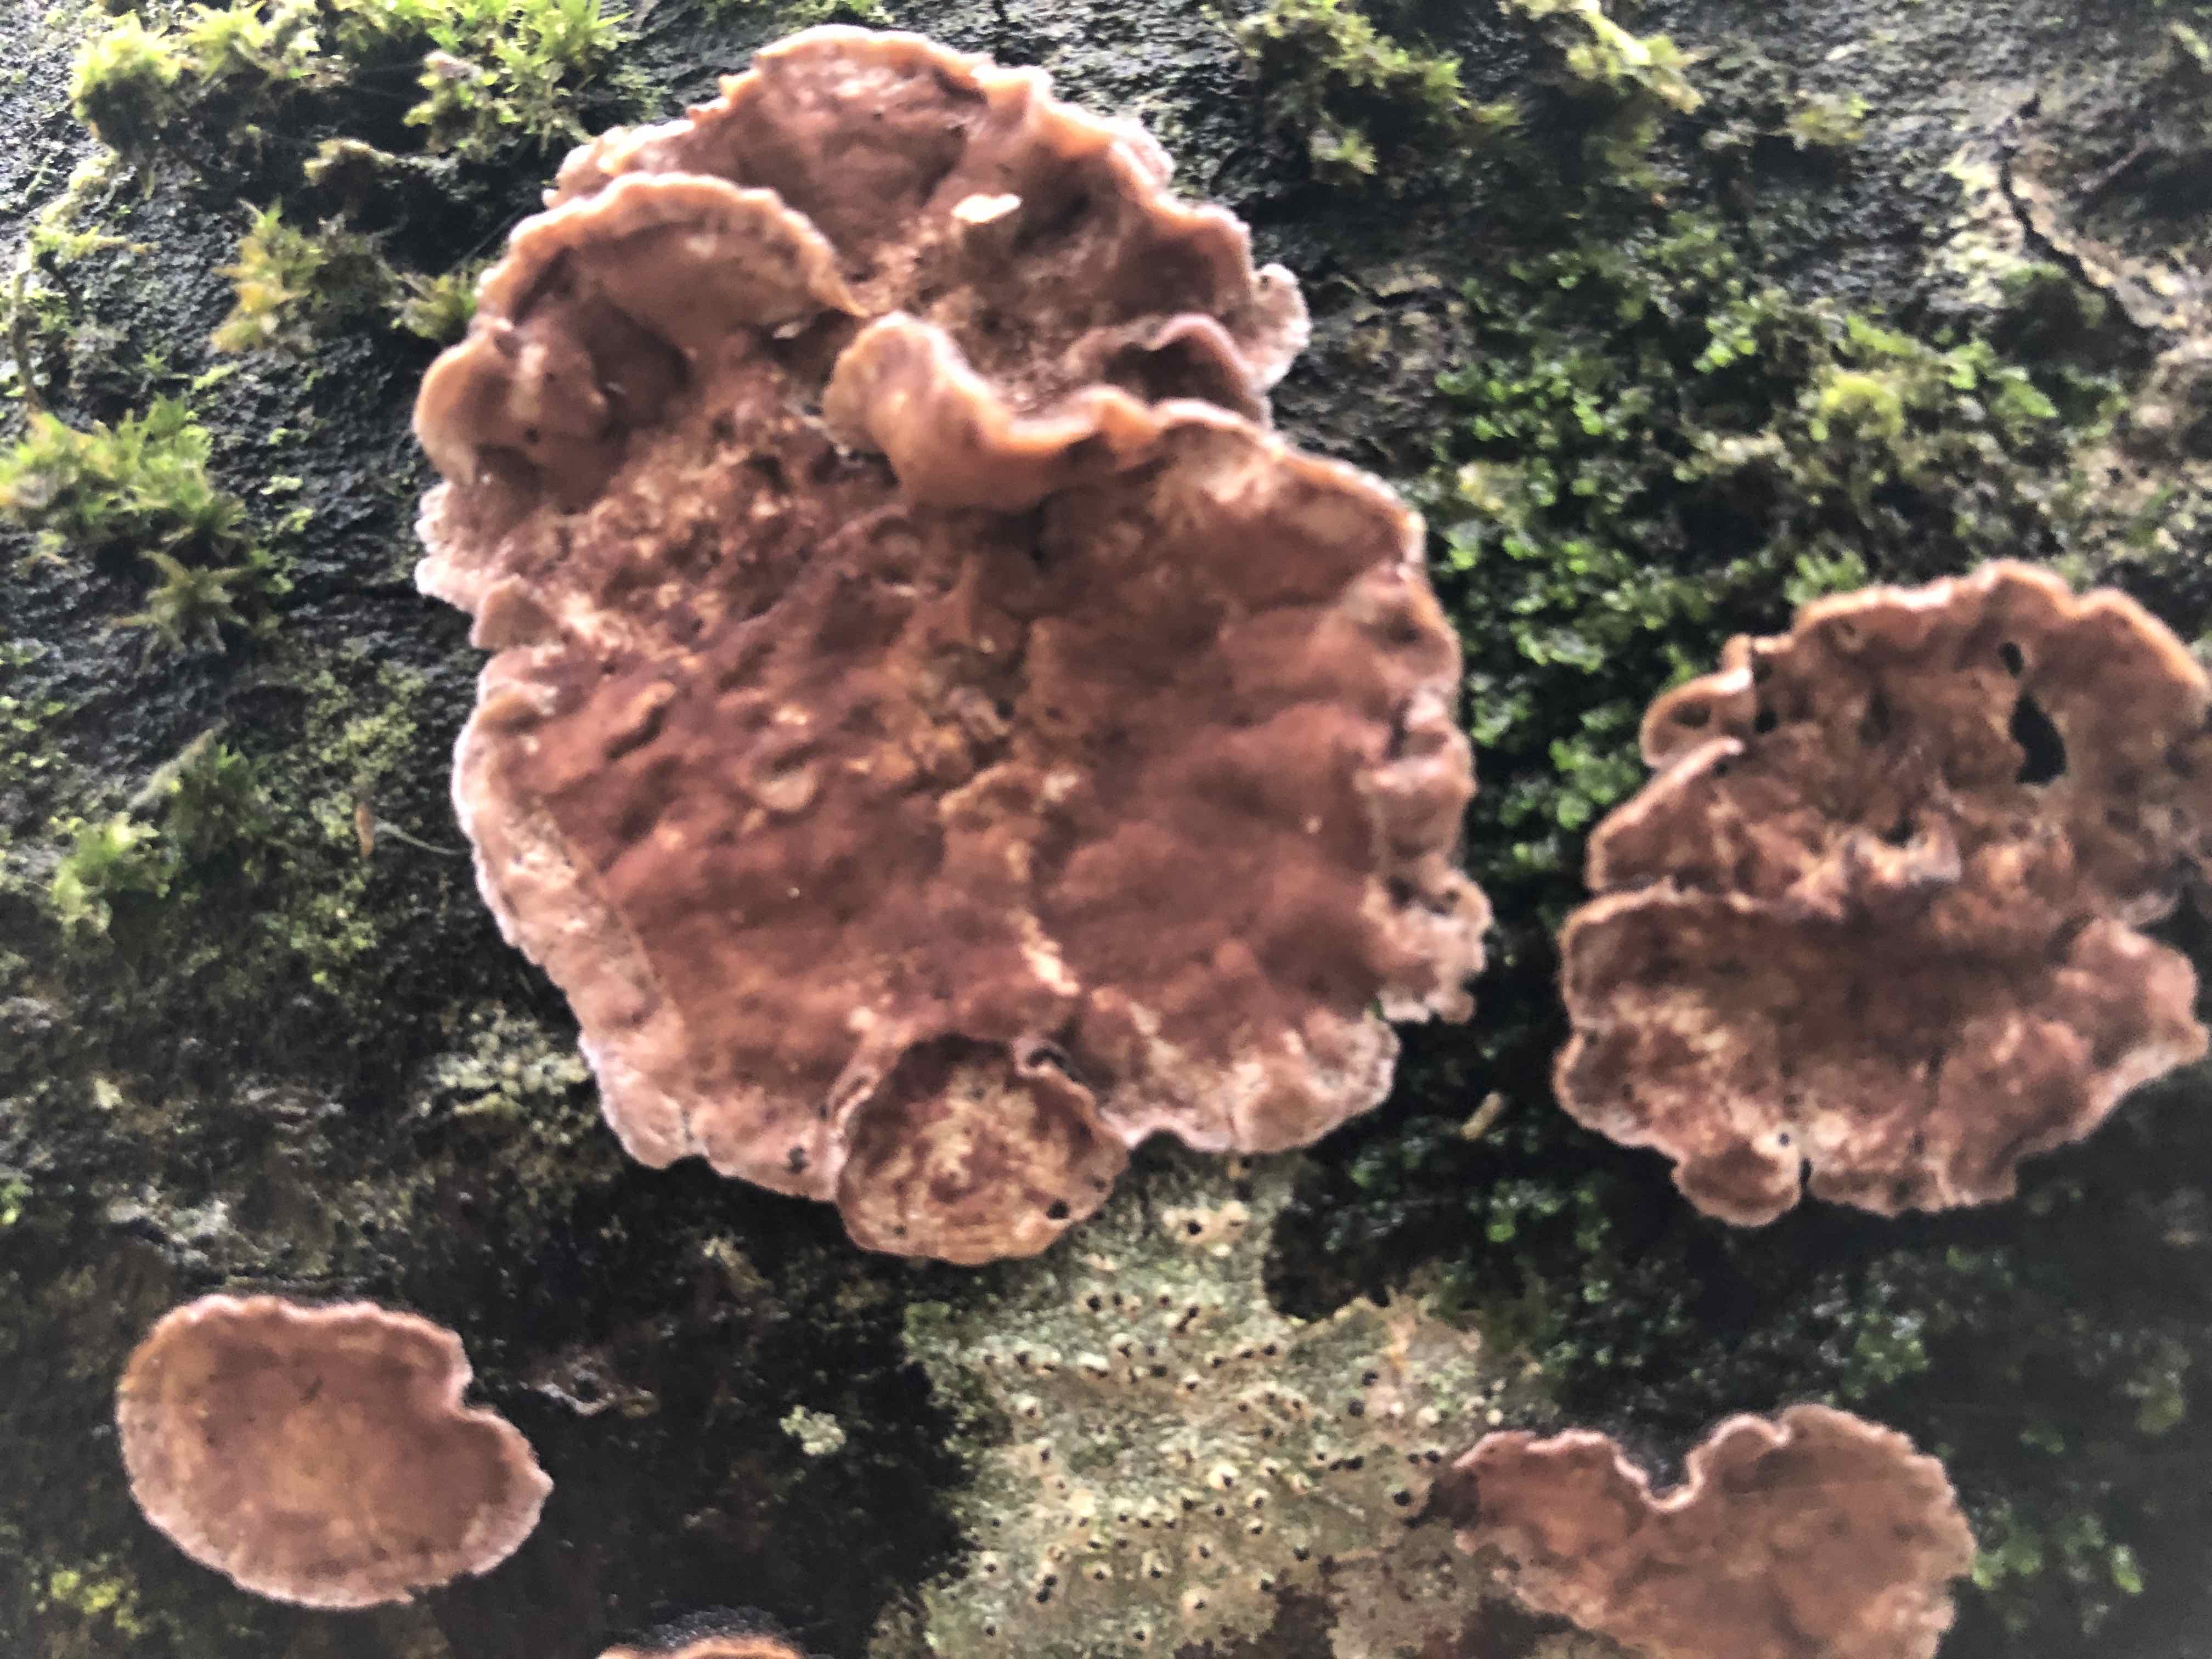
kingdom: Fungi
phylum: Basidiomycota
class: Agaricomycetes
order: Agaricales
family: Cyphellaceae
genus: Chondrostereum
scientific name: Chondrostereum purpureum
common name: purpurlædersvamp
